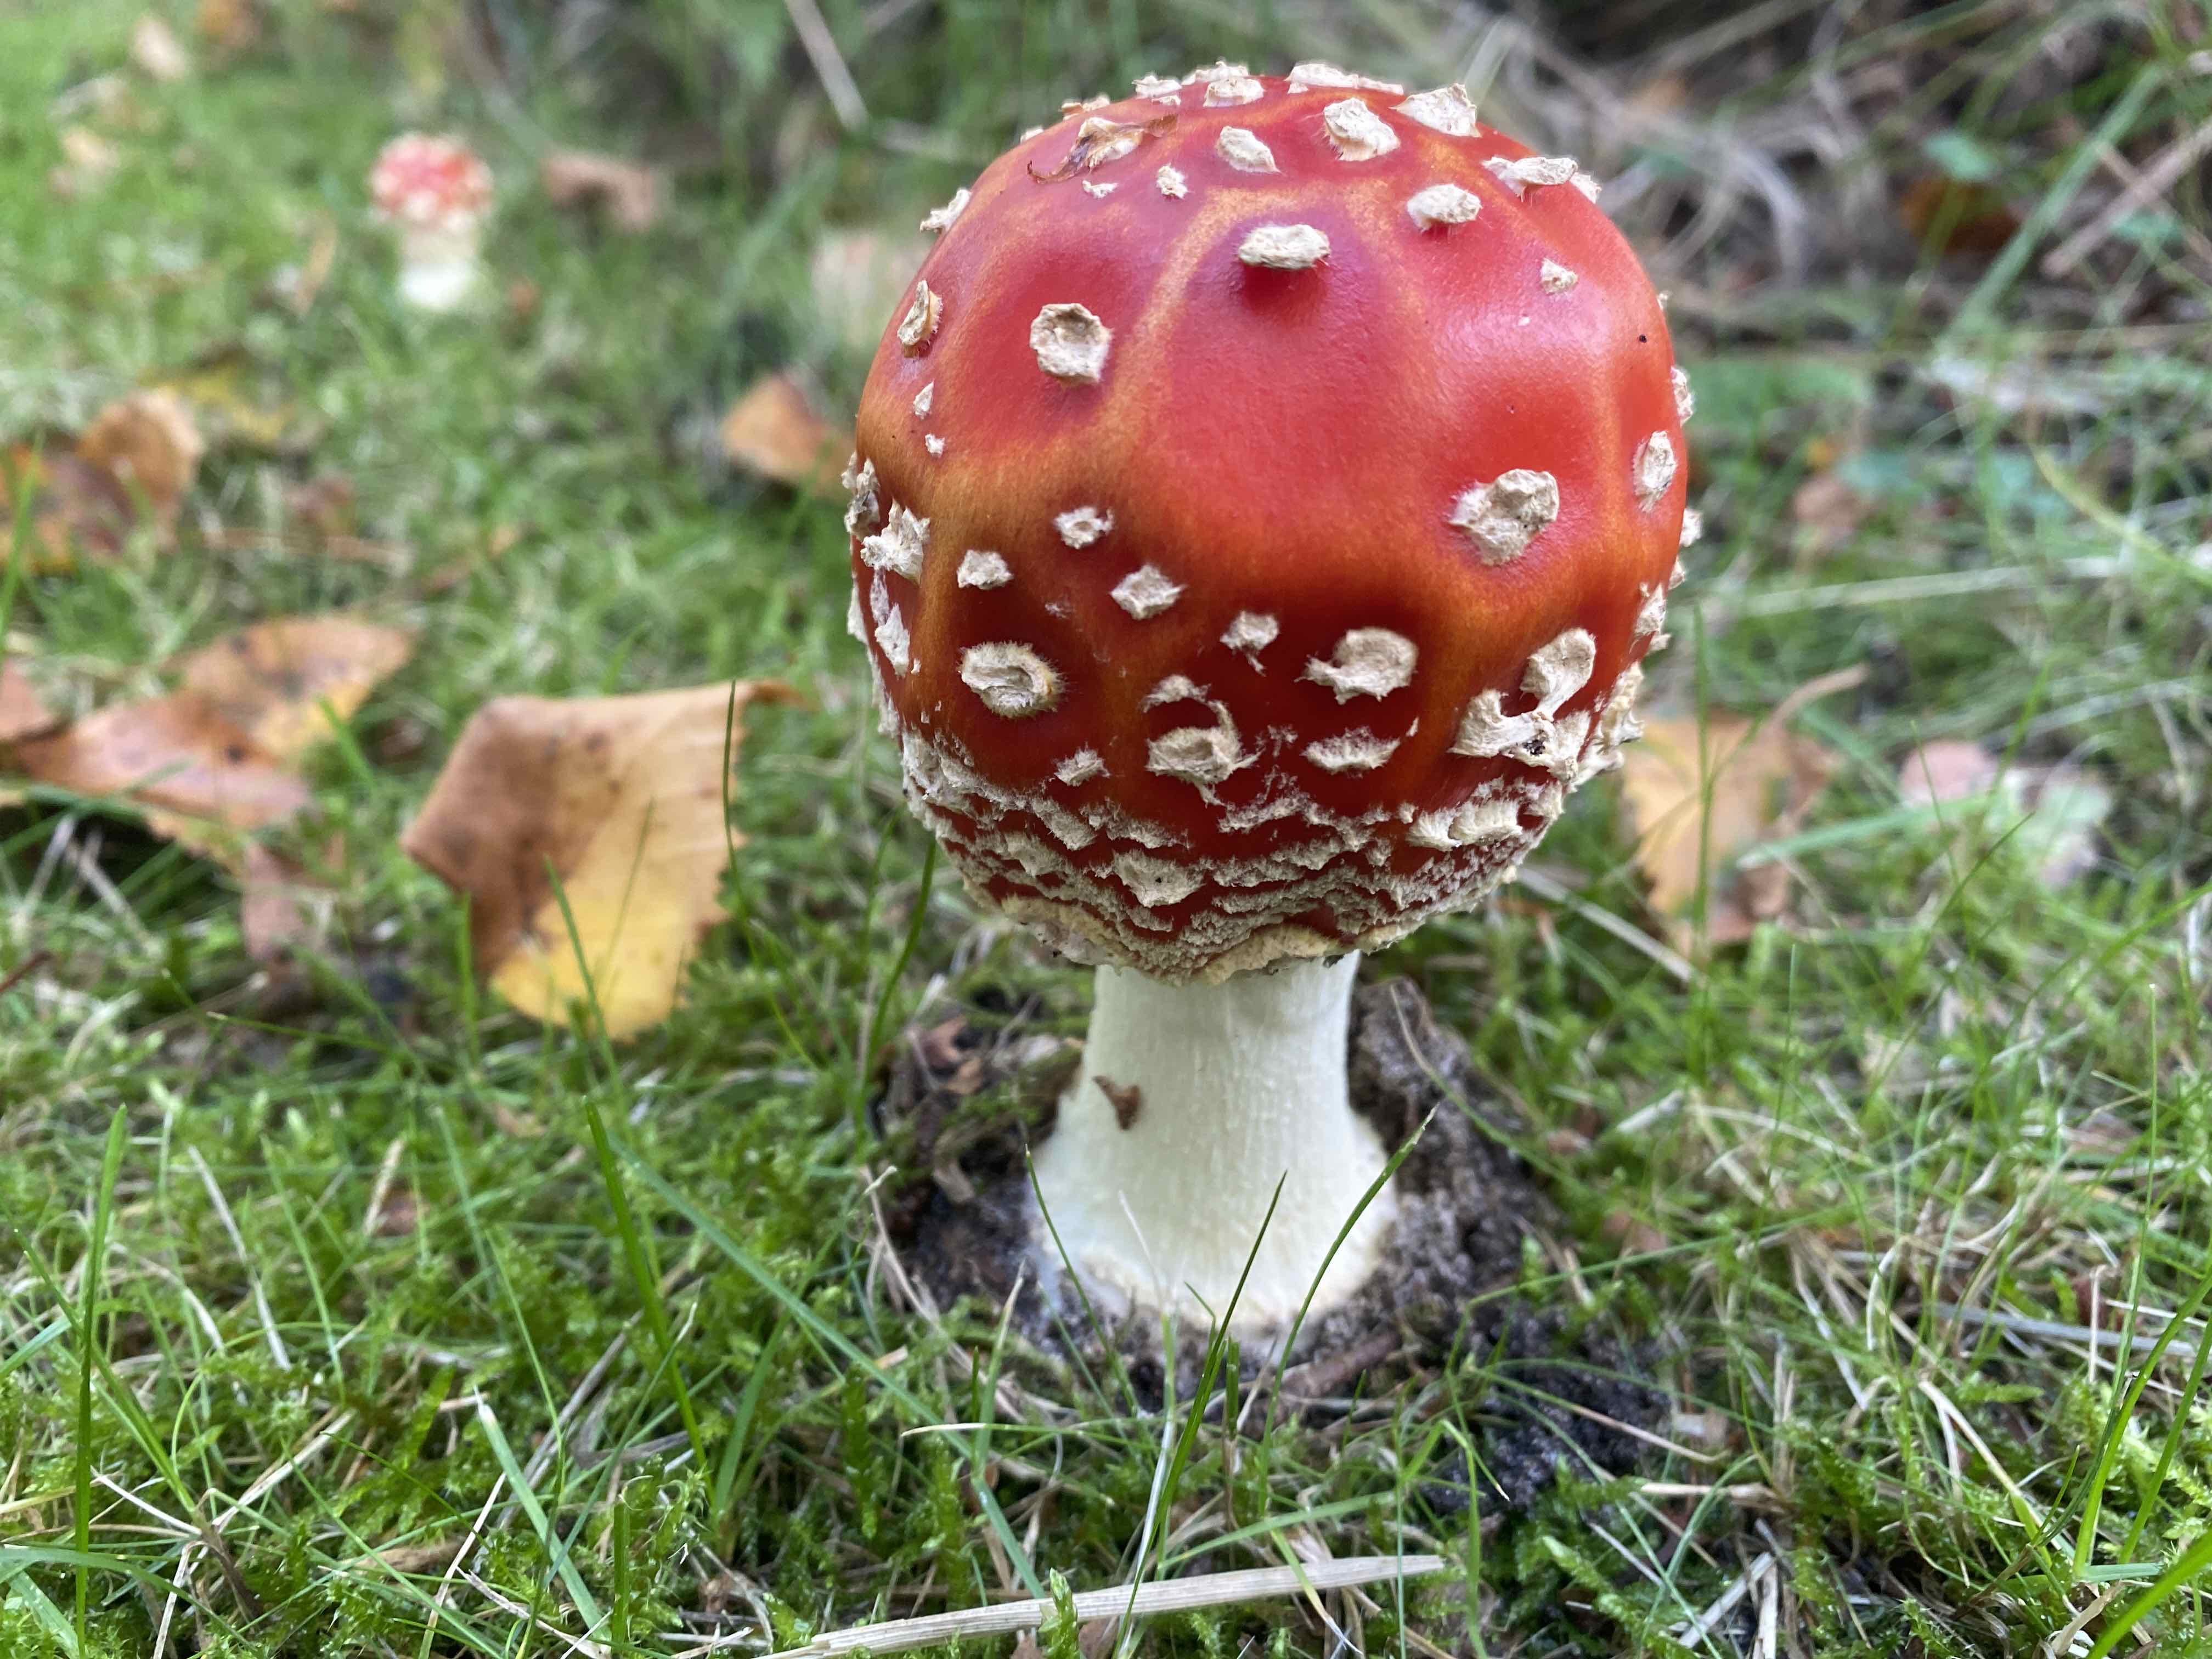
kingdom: Fungi
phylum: Basidiomycota
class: Agaricomycetes
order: Agaricales
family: Amanitaceae
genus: Amanita
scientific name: Amanita muscaria
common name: rød fluesvamp
